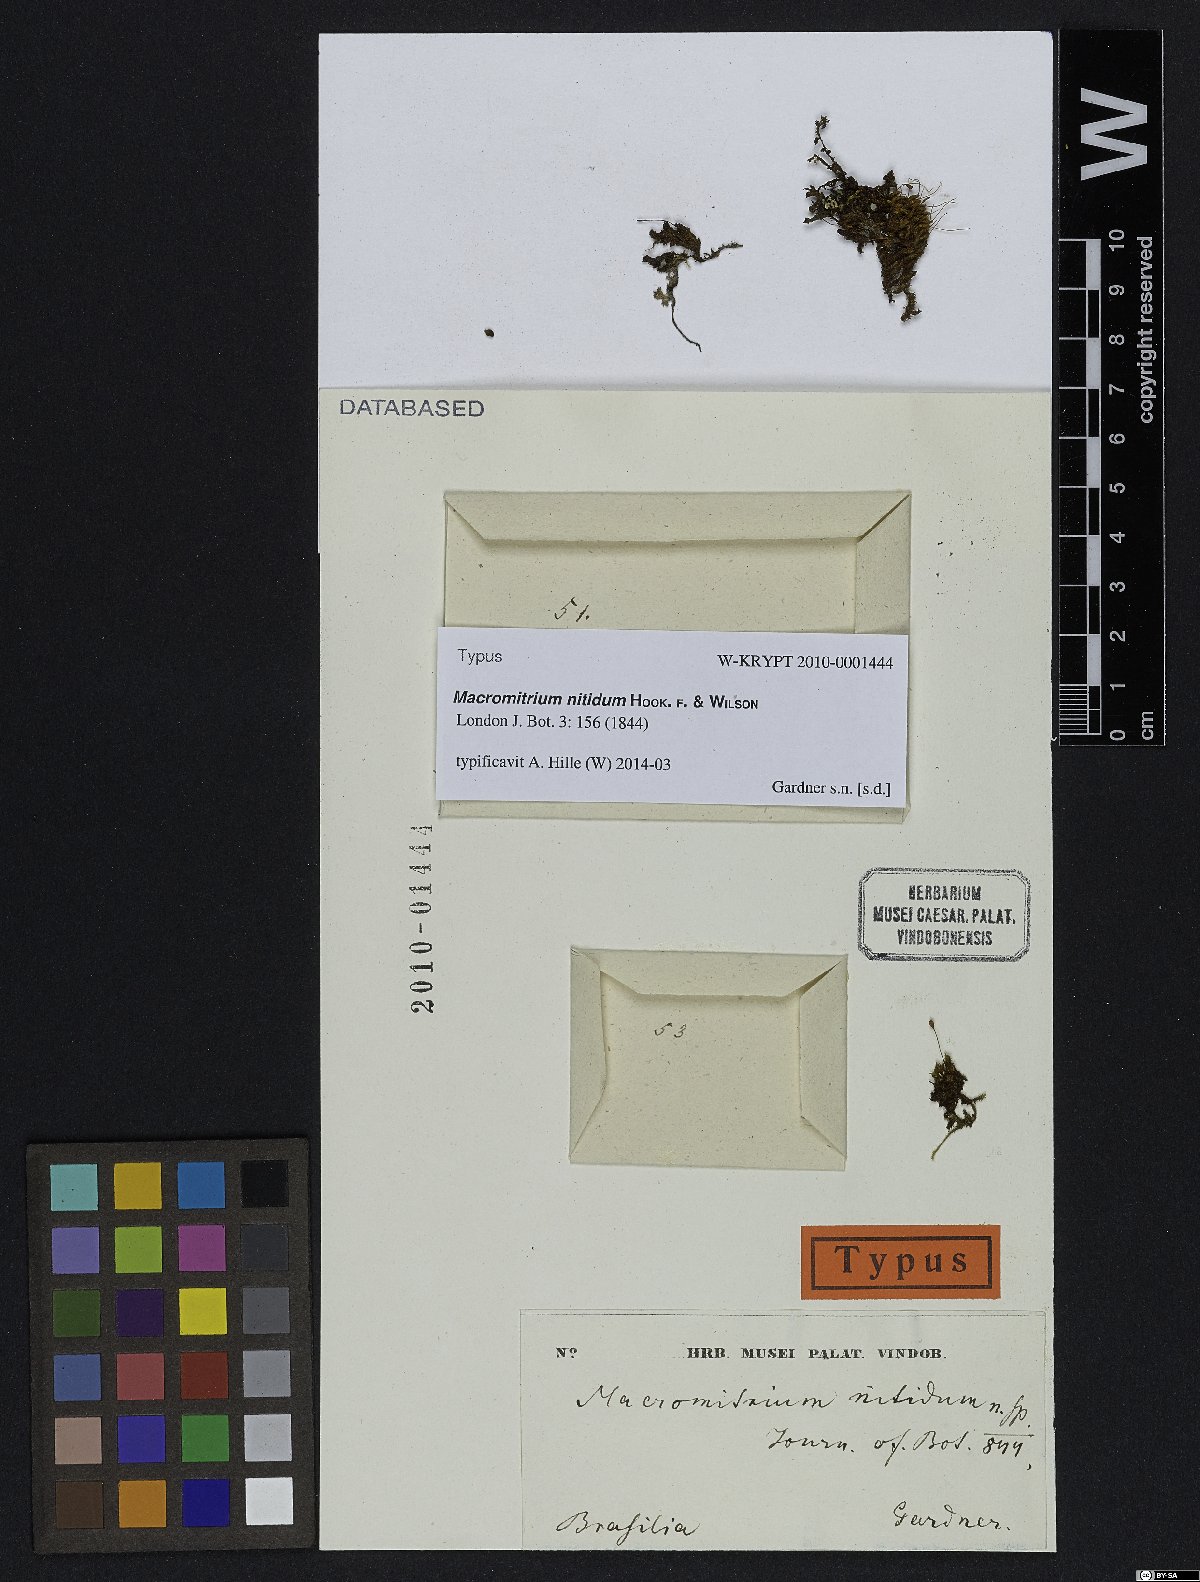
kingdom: Plantae
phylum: Bryophyta
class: Bryopsida
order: Orthotrichales
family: Orthotrichaceae
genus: Macromitrium
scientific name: Macromitrium microstomum
